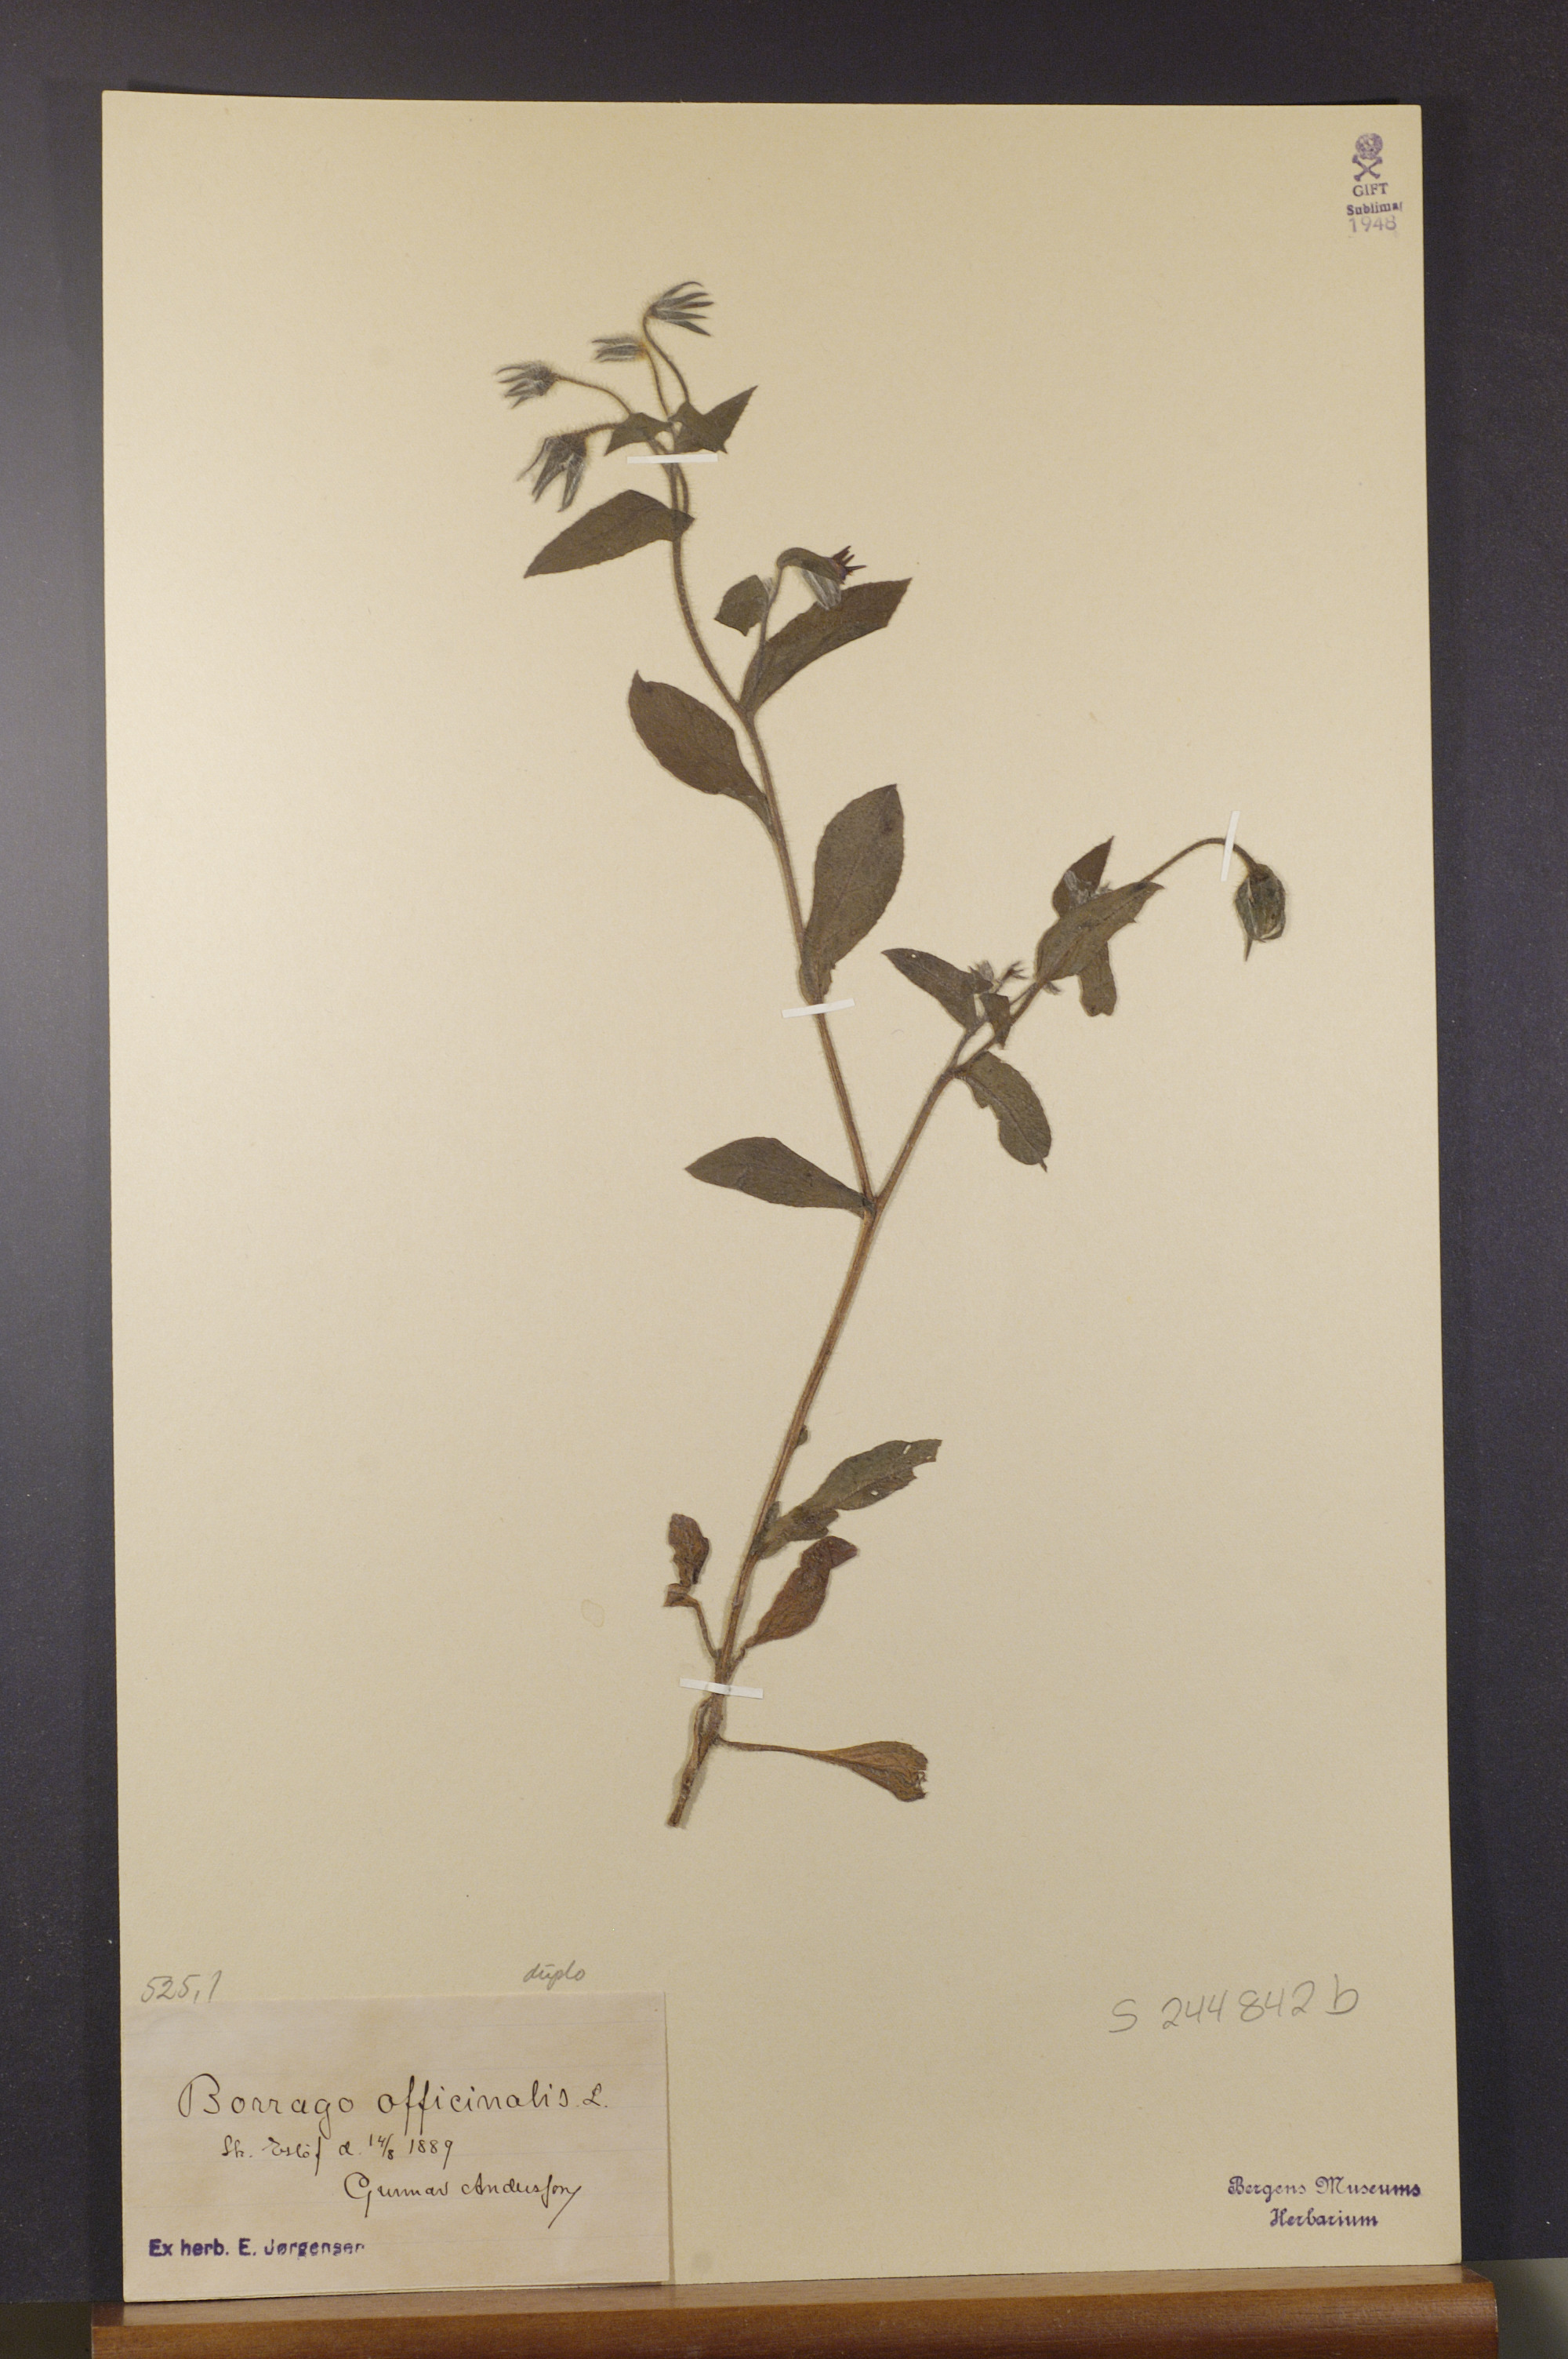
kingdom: Plantae
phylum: Tracheophyta
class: Magnoliopsida
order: Boraginales
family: Boraginaceae
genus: Borago
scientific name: Borago officinalis
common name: Borage
